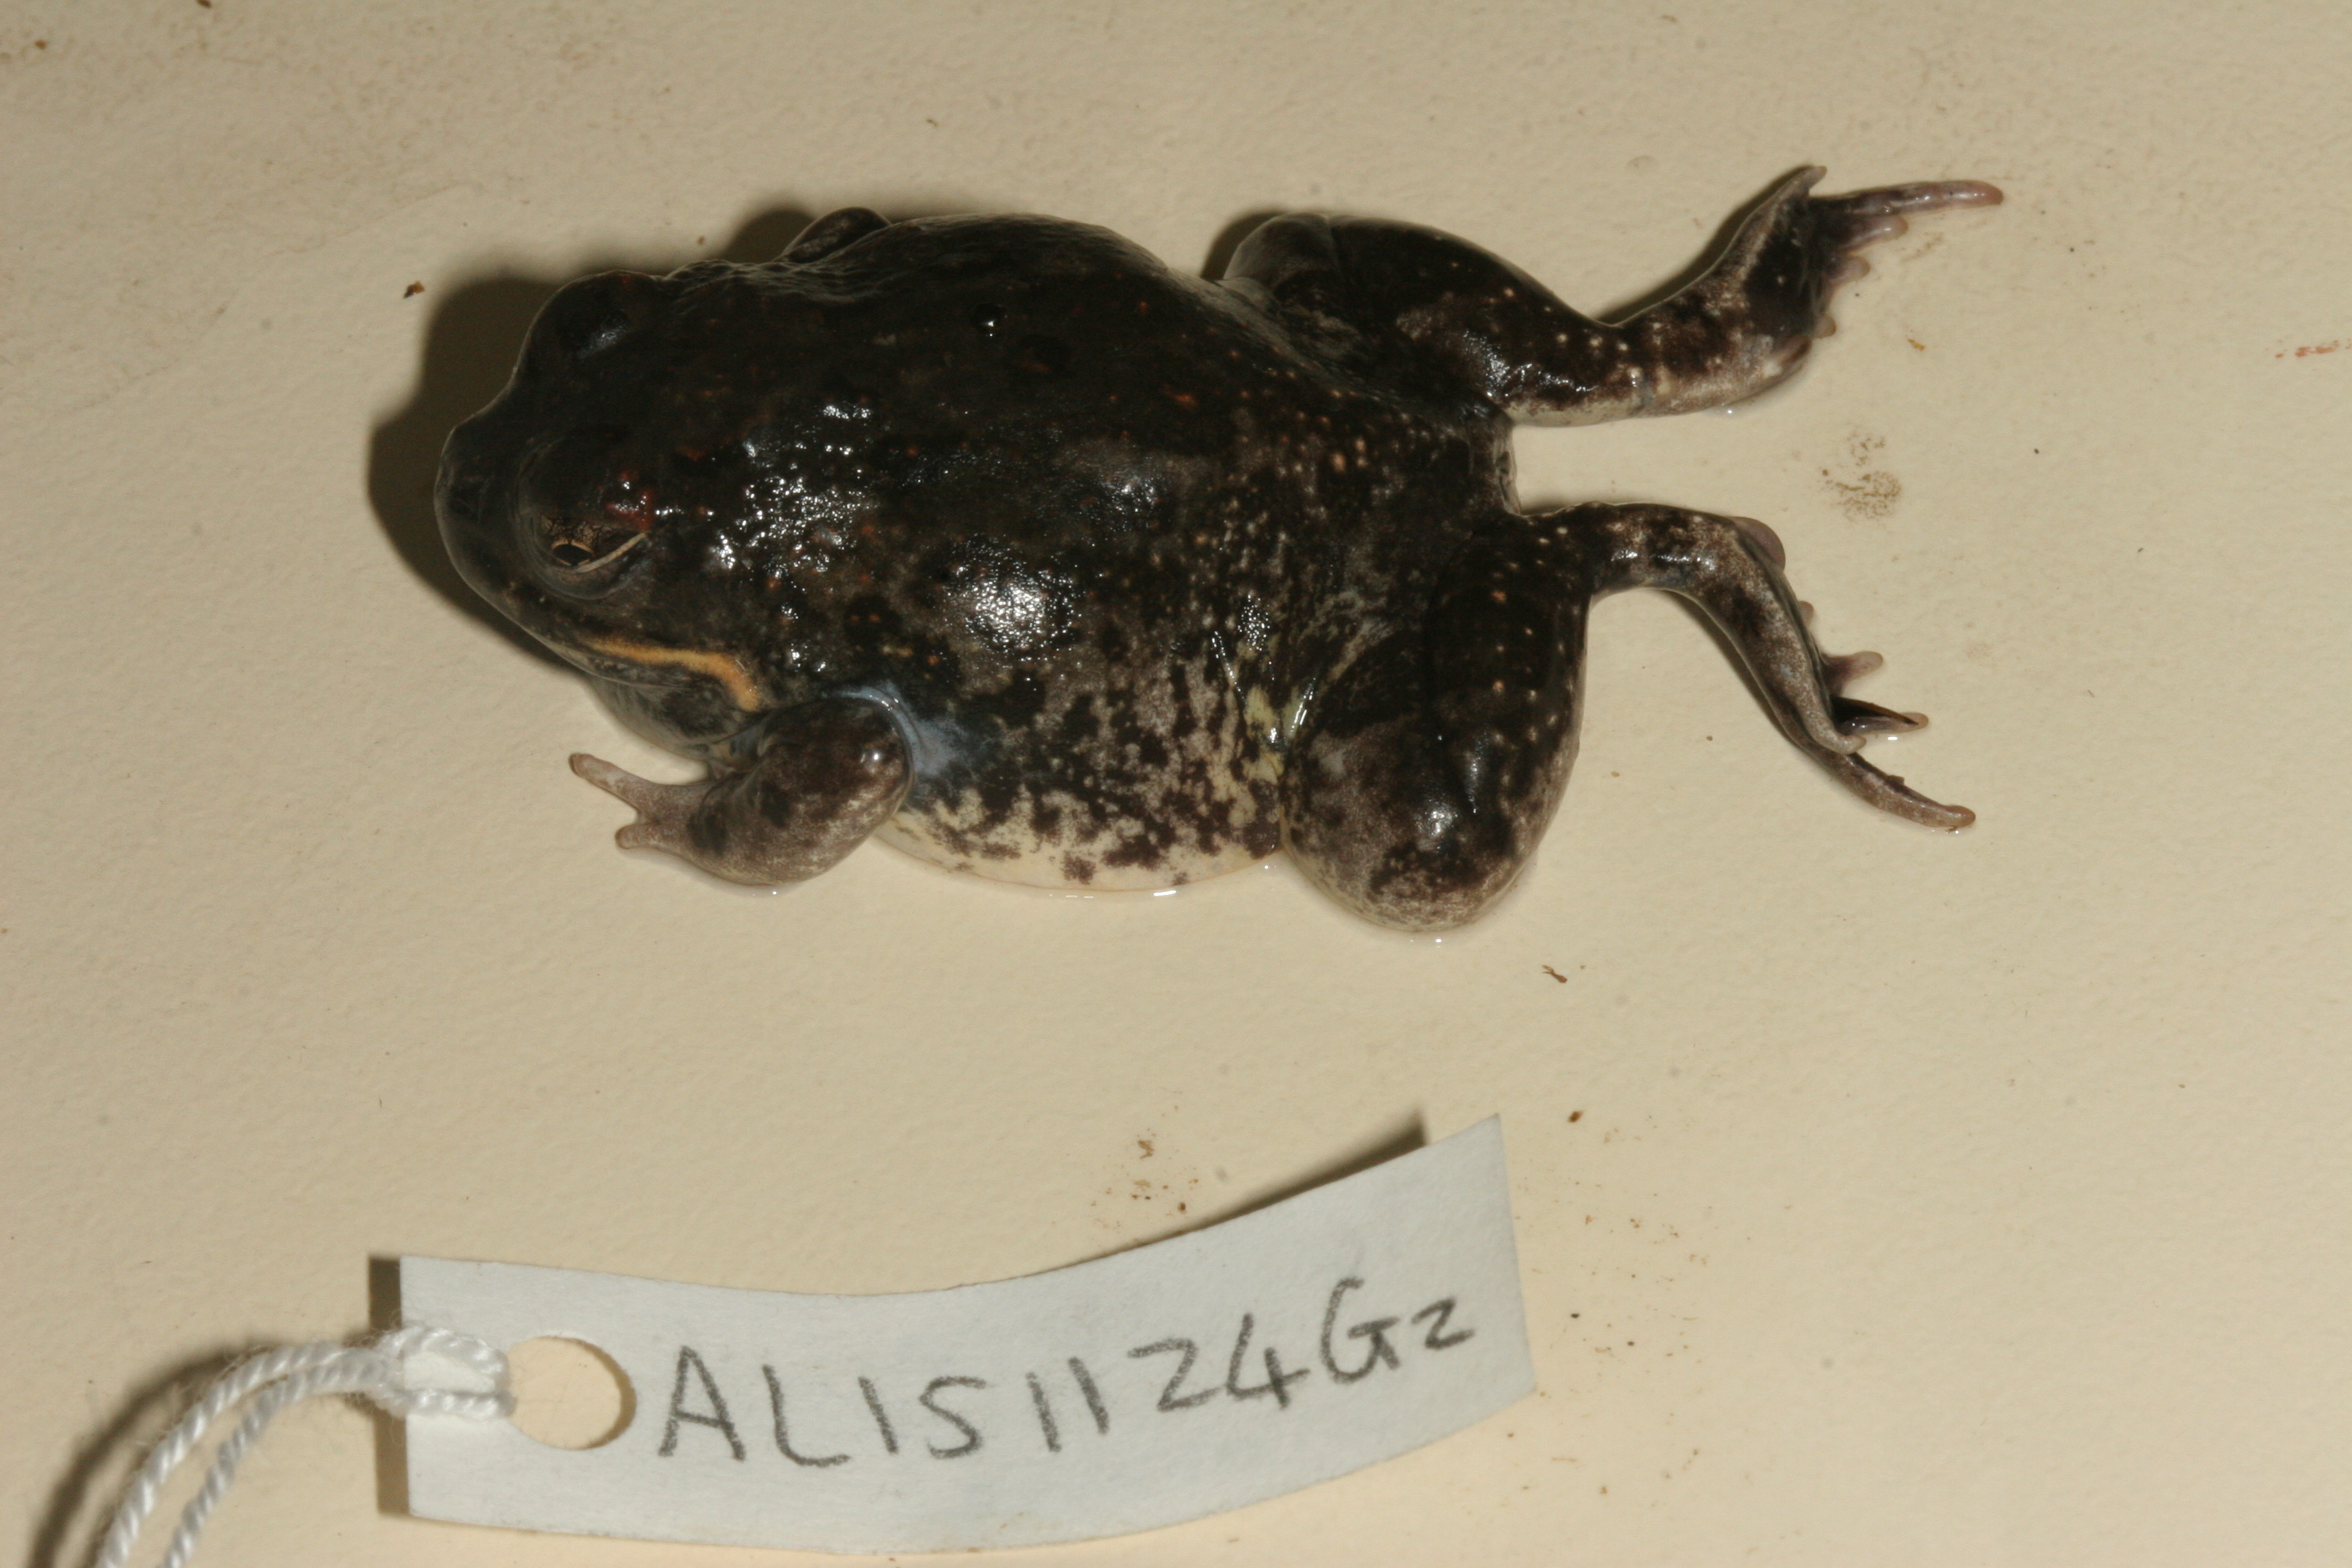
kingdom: Animalia
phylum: Chordata
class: Amphibia
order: Anura
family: Pyxicephalidae
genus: Tomopterna
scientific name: Tomopterna cryptotis
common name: Catequero bullfrog
